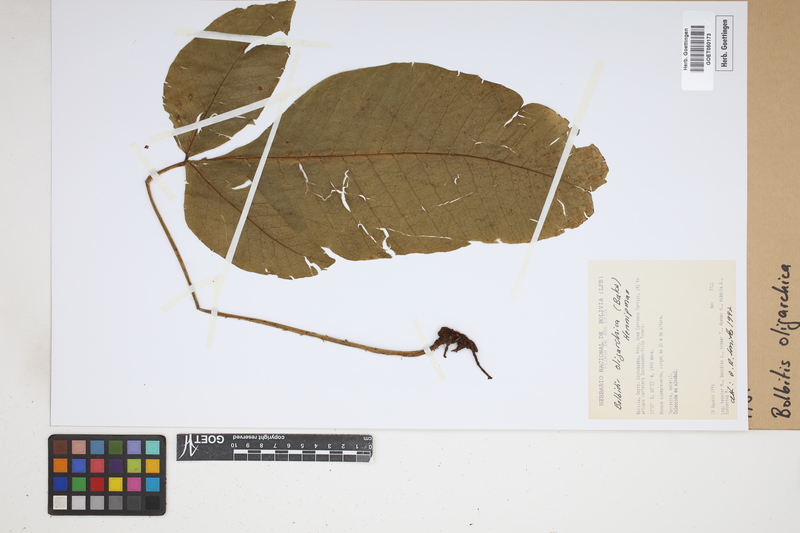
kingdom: Plantae
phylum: Tracheophyta
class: Polypodiopsida
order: Polypodiales
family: Dryopteridaceae
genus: Mickelia
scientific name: Mickelia oligarchica
